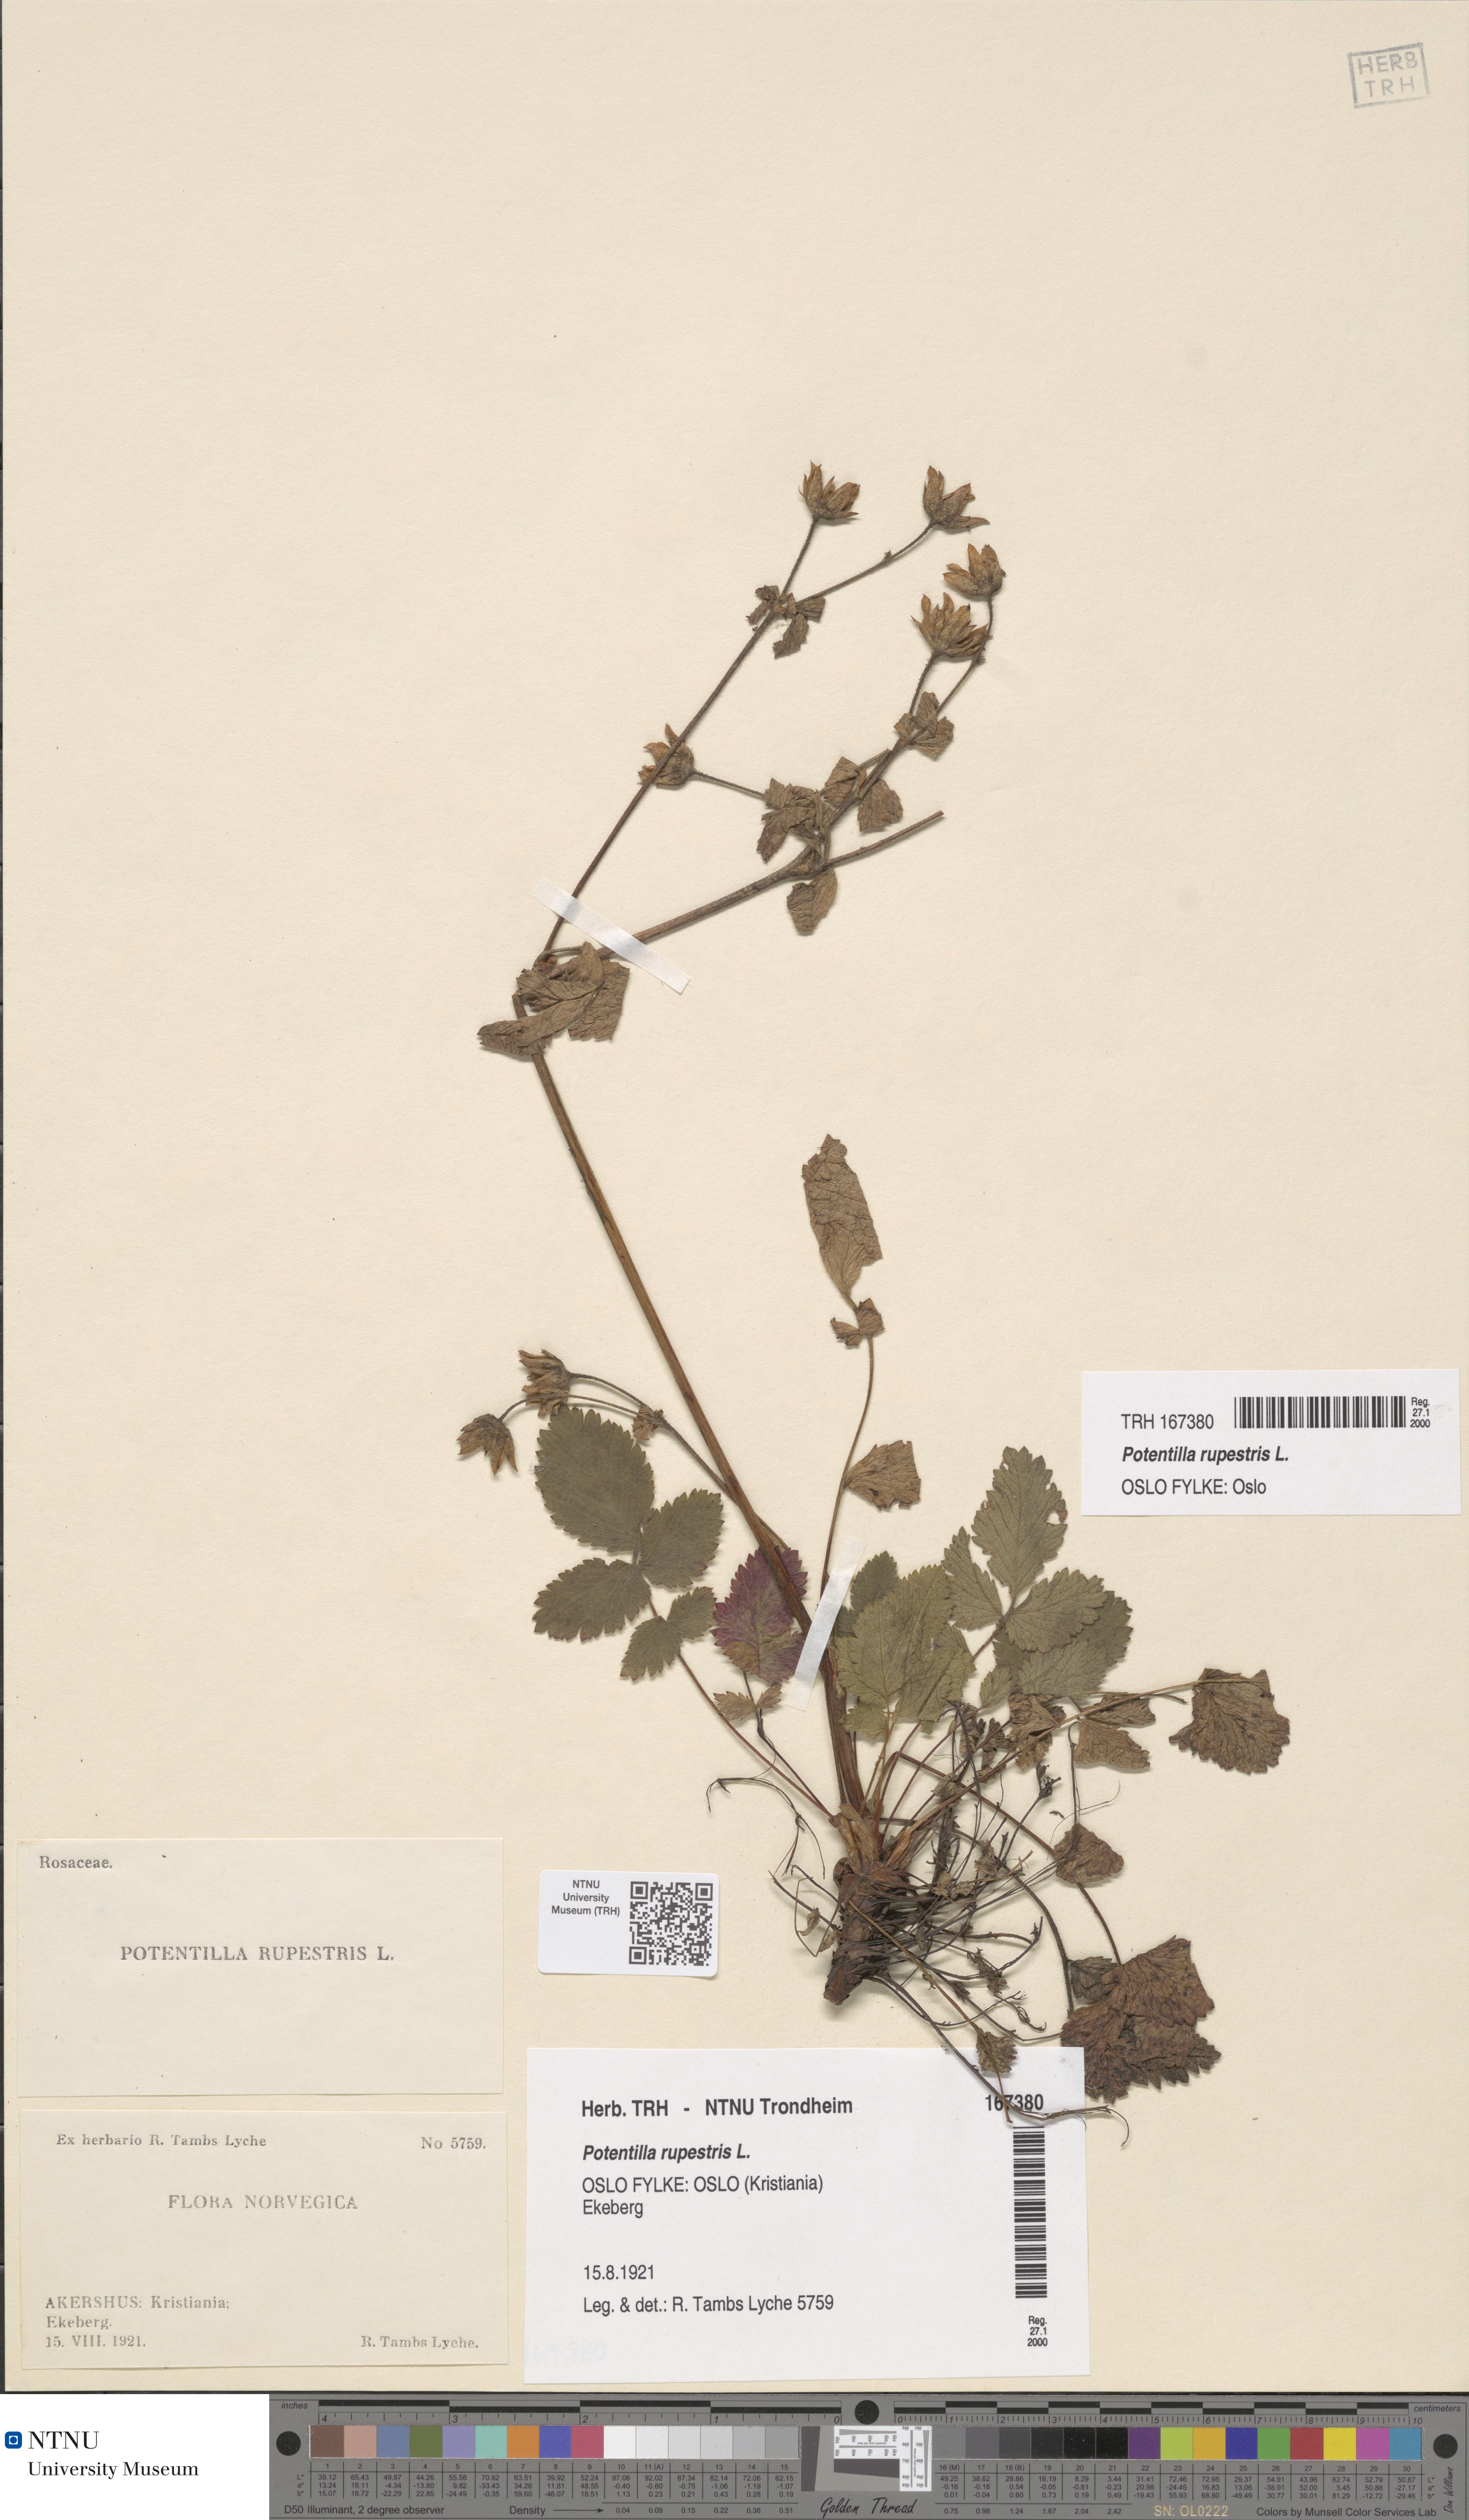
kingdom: Plantae
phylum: Tracheophyta
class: Magnoliopsida
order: Rosales
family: Rosaceae
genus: Drymocallis
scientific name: Drymocallis rupestris
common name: Rock cinquefoil
